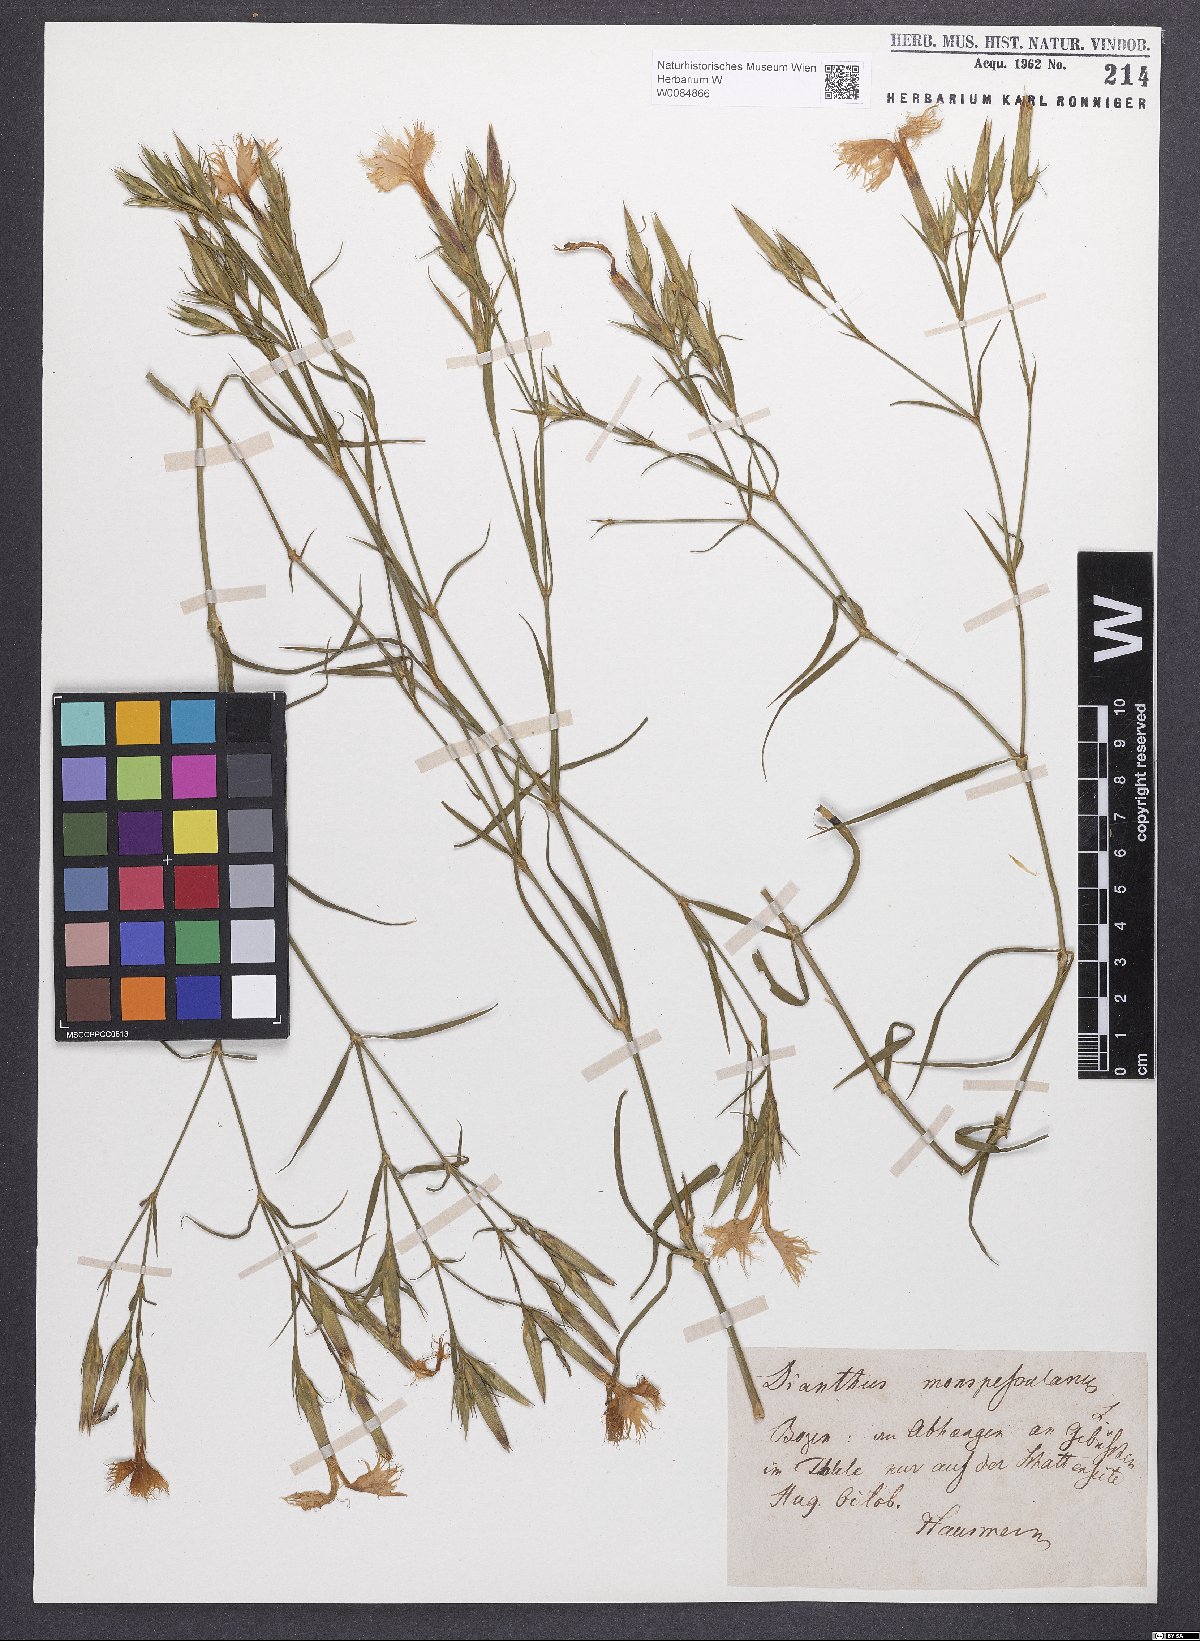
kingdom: Plantae
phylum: Tracheophyta
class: Magnoliopsida
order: Caryophyllales
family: Caryophyllaceae
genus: Dianthus
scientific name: Dianthus hyssopifolius
